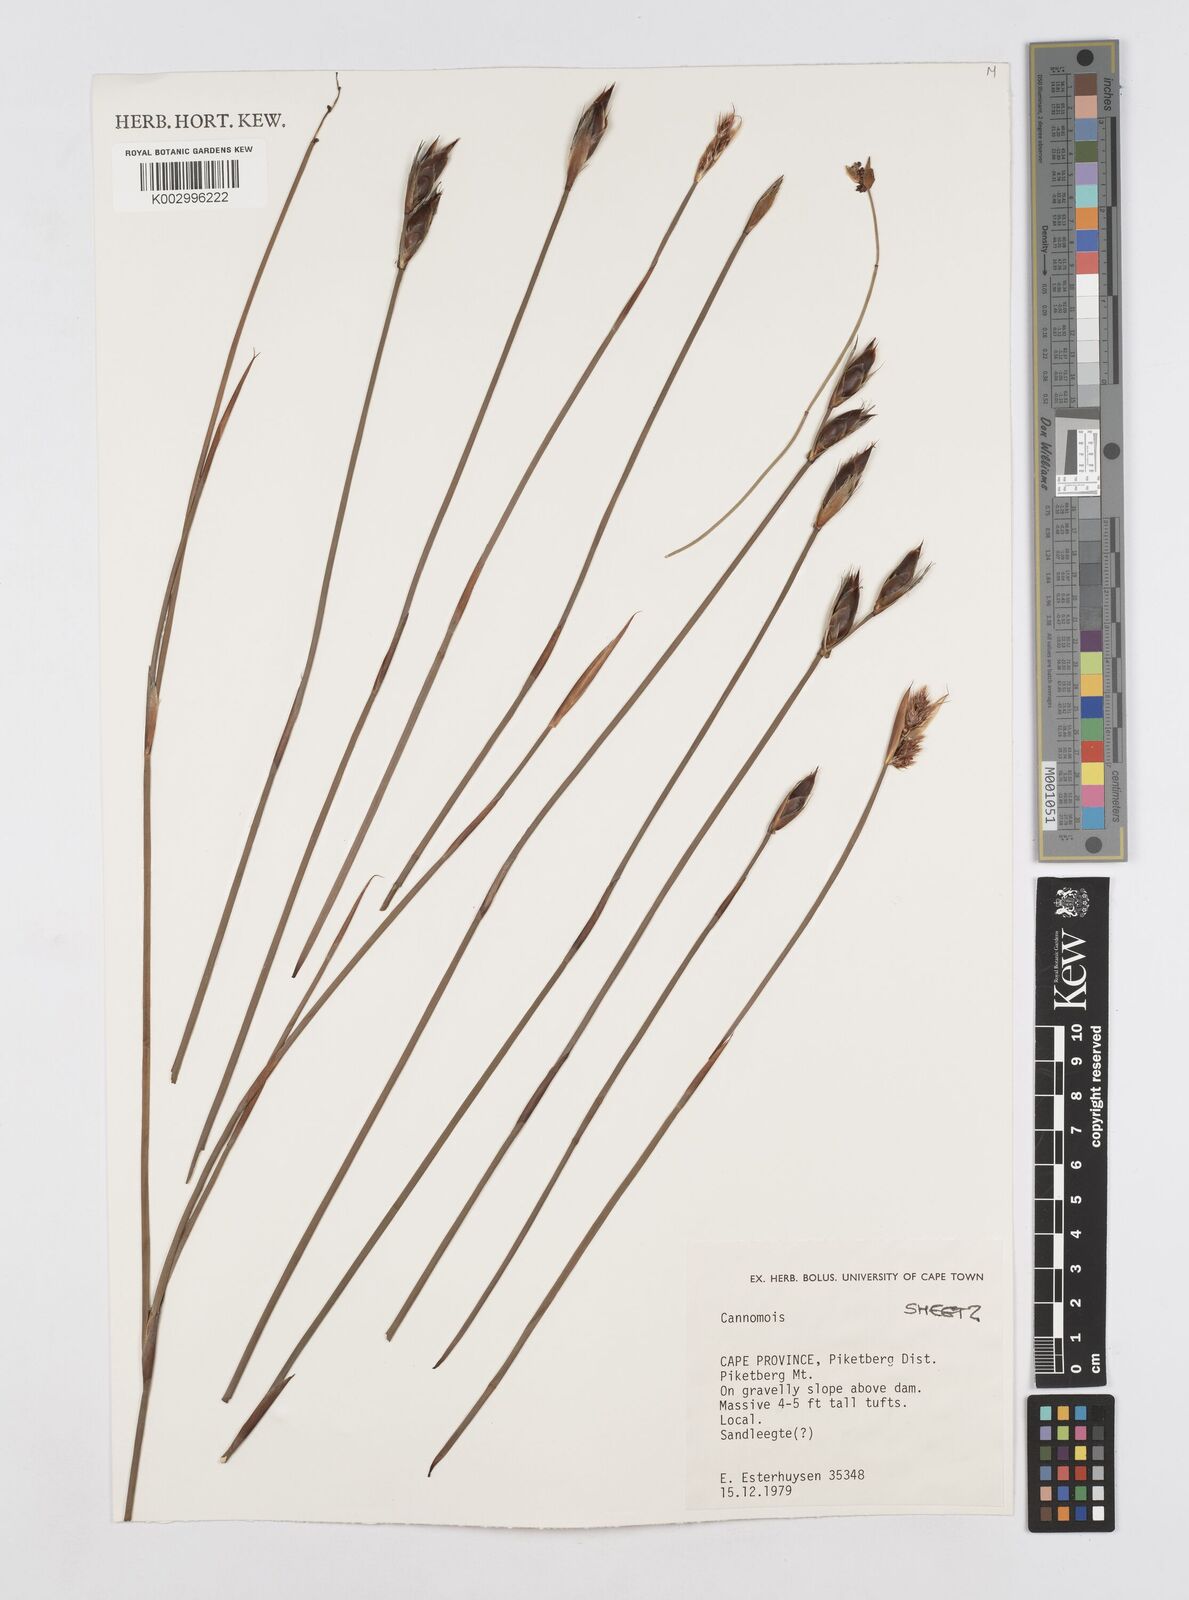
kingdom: Plantae
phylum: Tracheophyta
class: Liliopsida
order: Poales
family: Restionaceae
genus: Cannomois
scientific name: Cannomois
